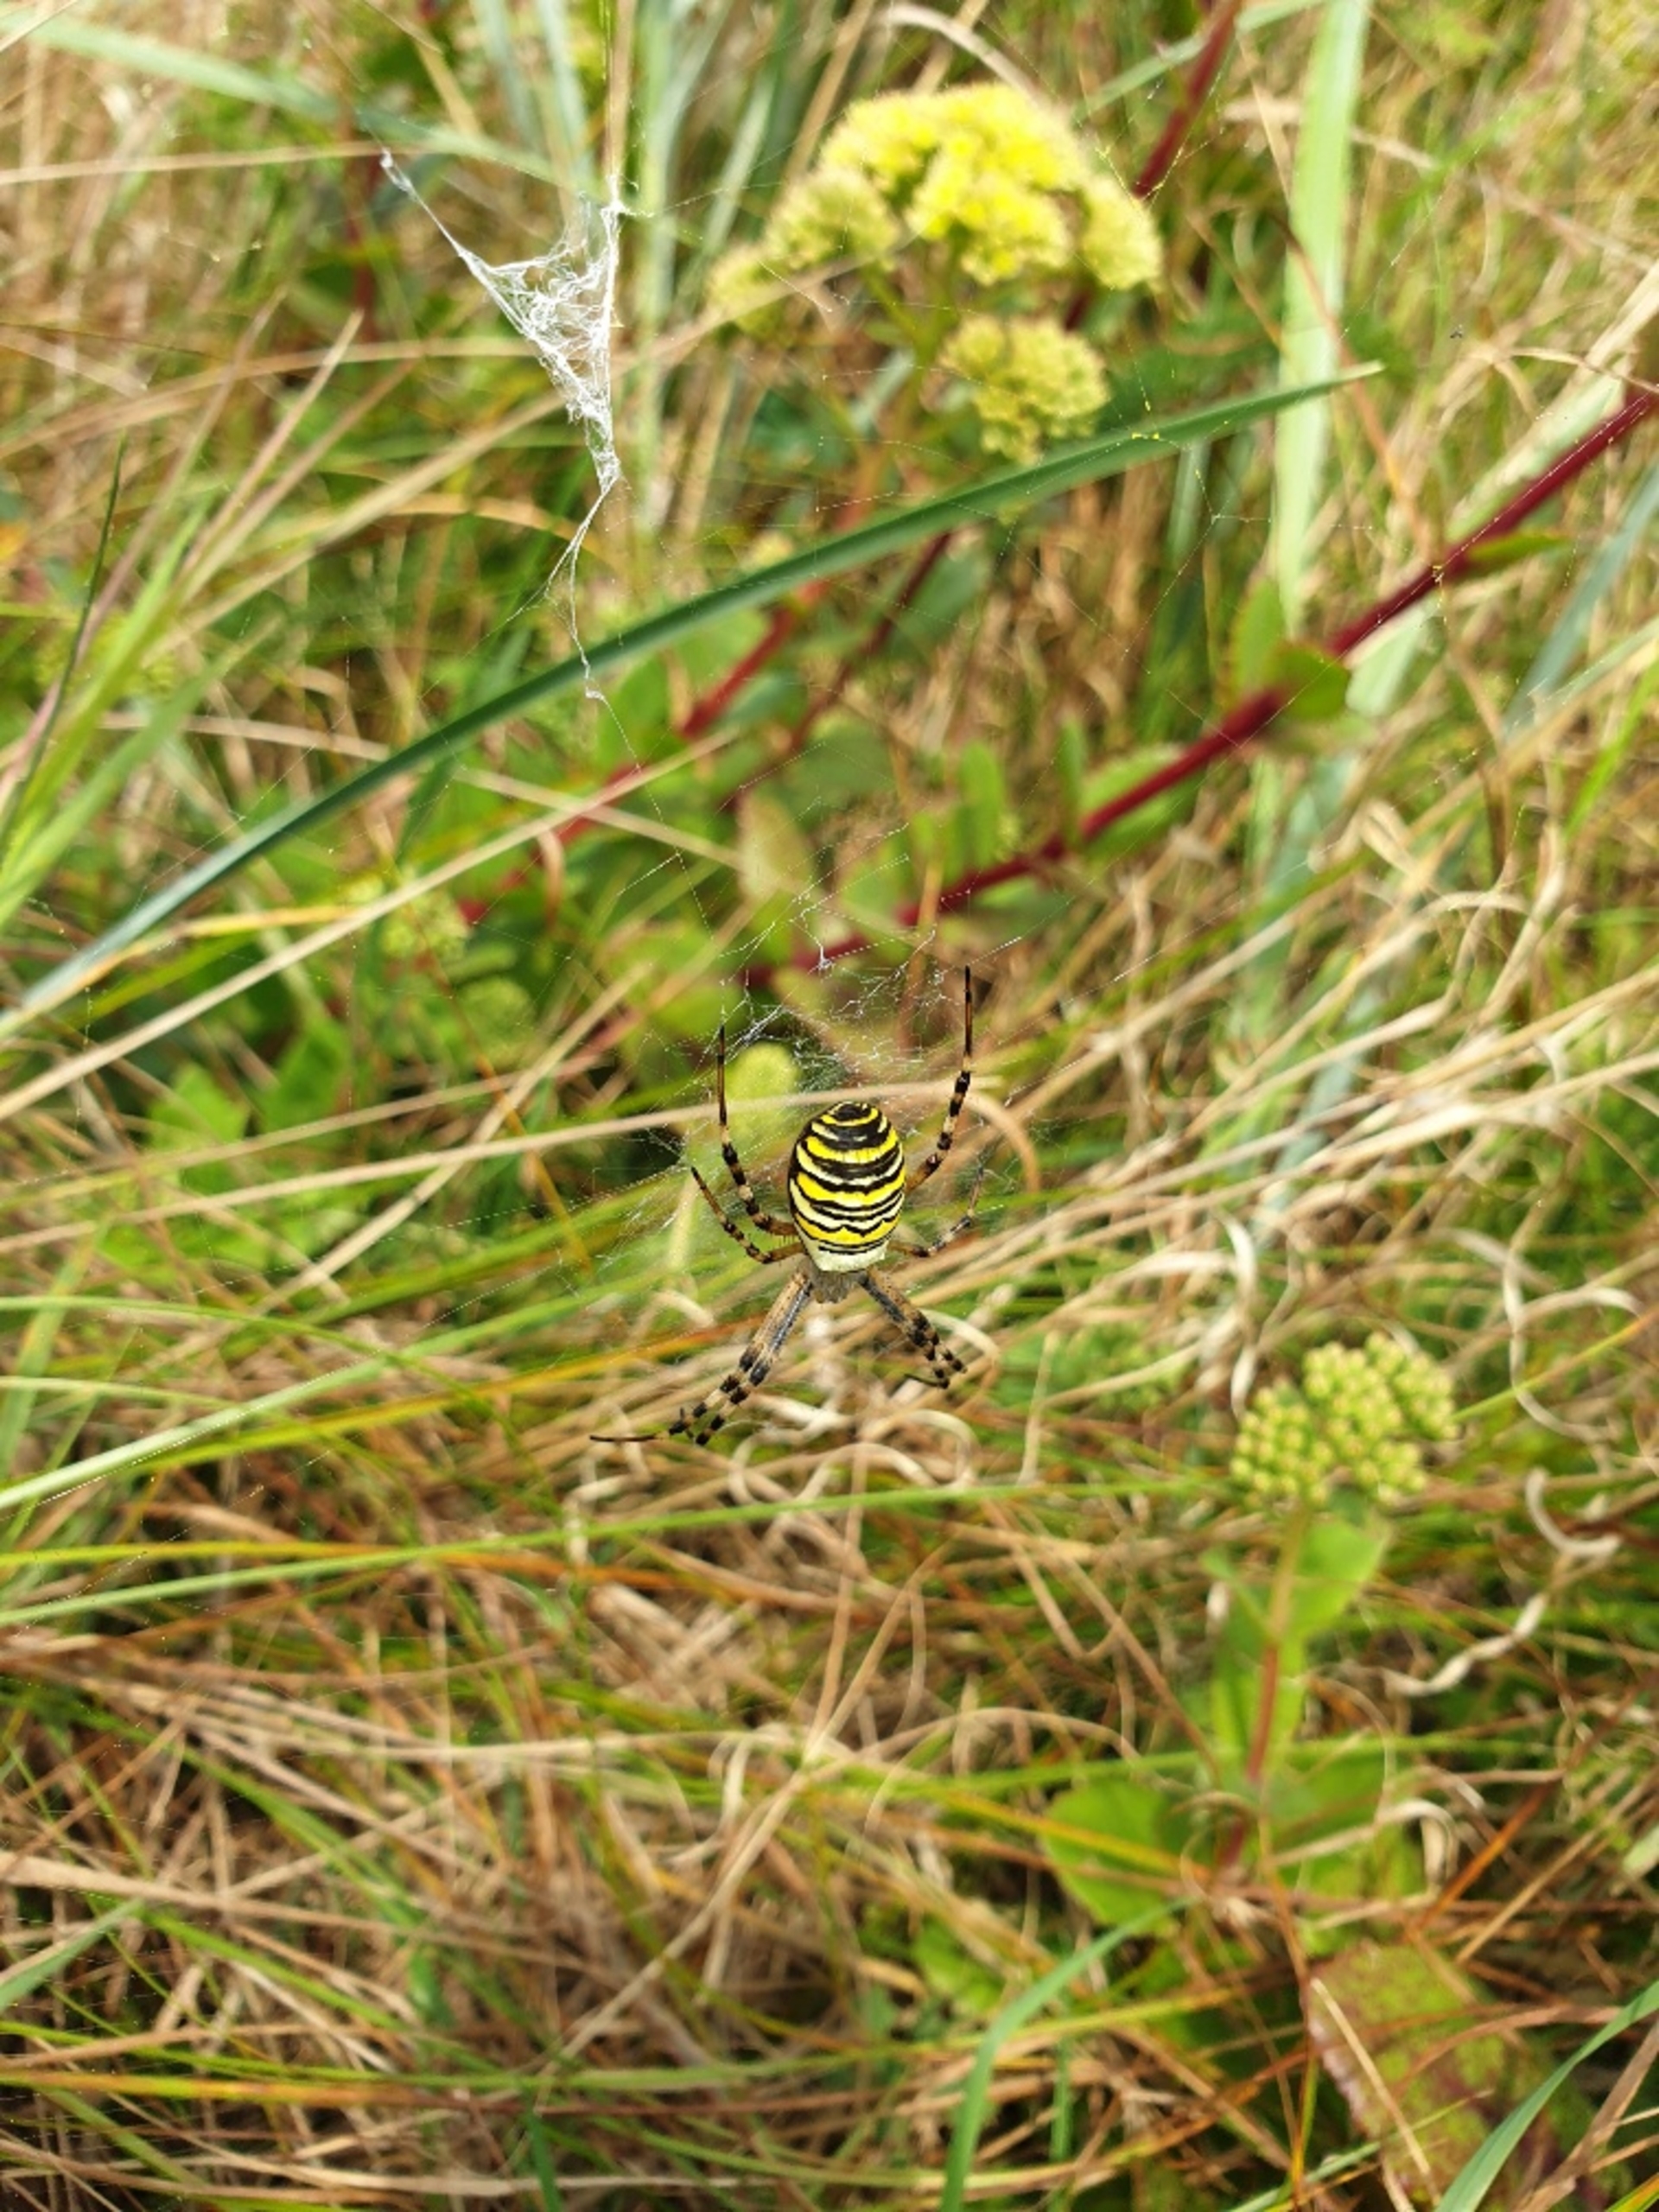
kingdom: Animalia
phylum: Arthropoda
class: Arachnida
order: Araneae
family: Araneidae
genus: Argiope
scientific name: Argiope bruennichi
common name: Hvepseedderkop
